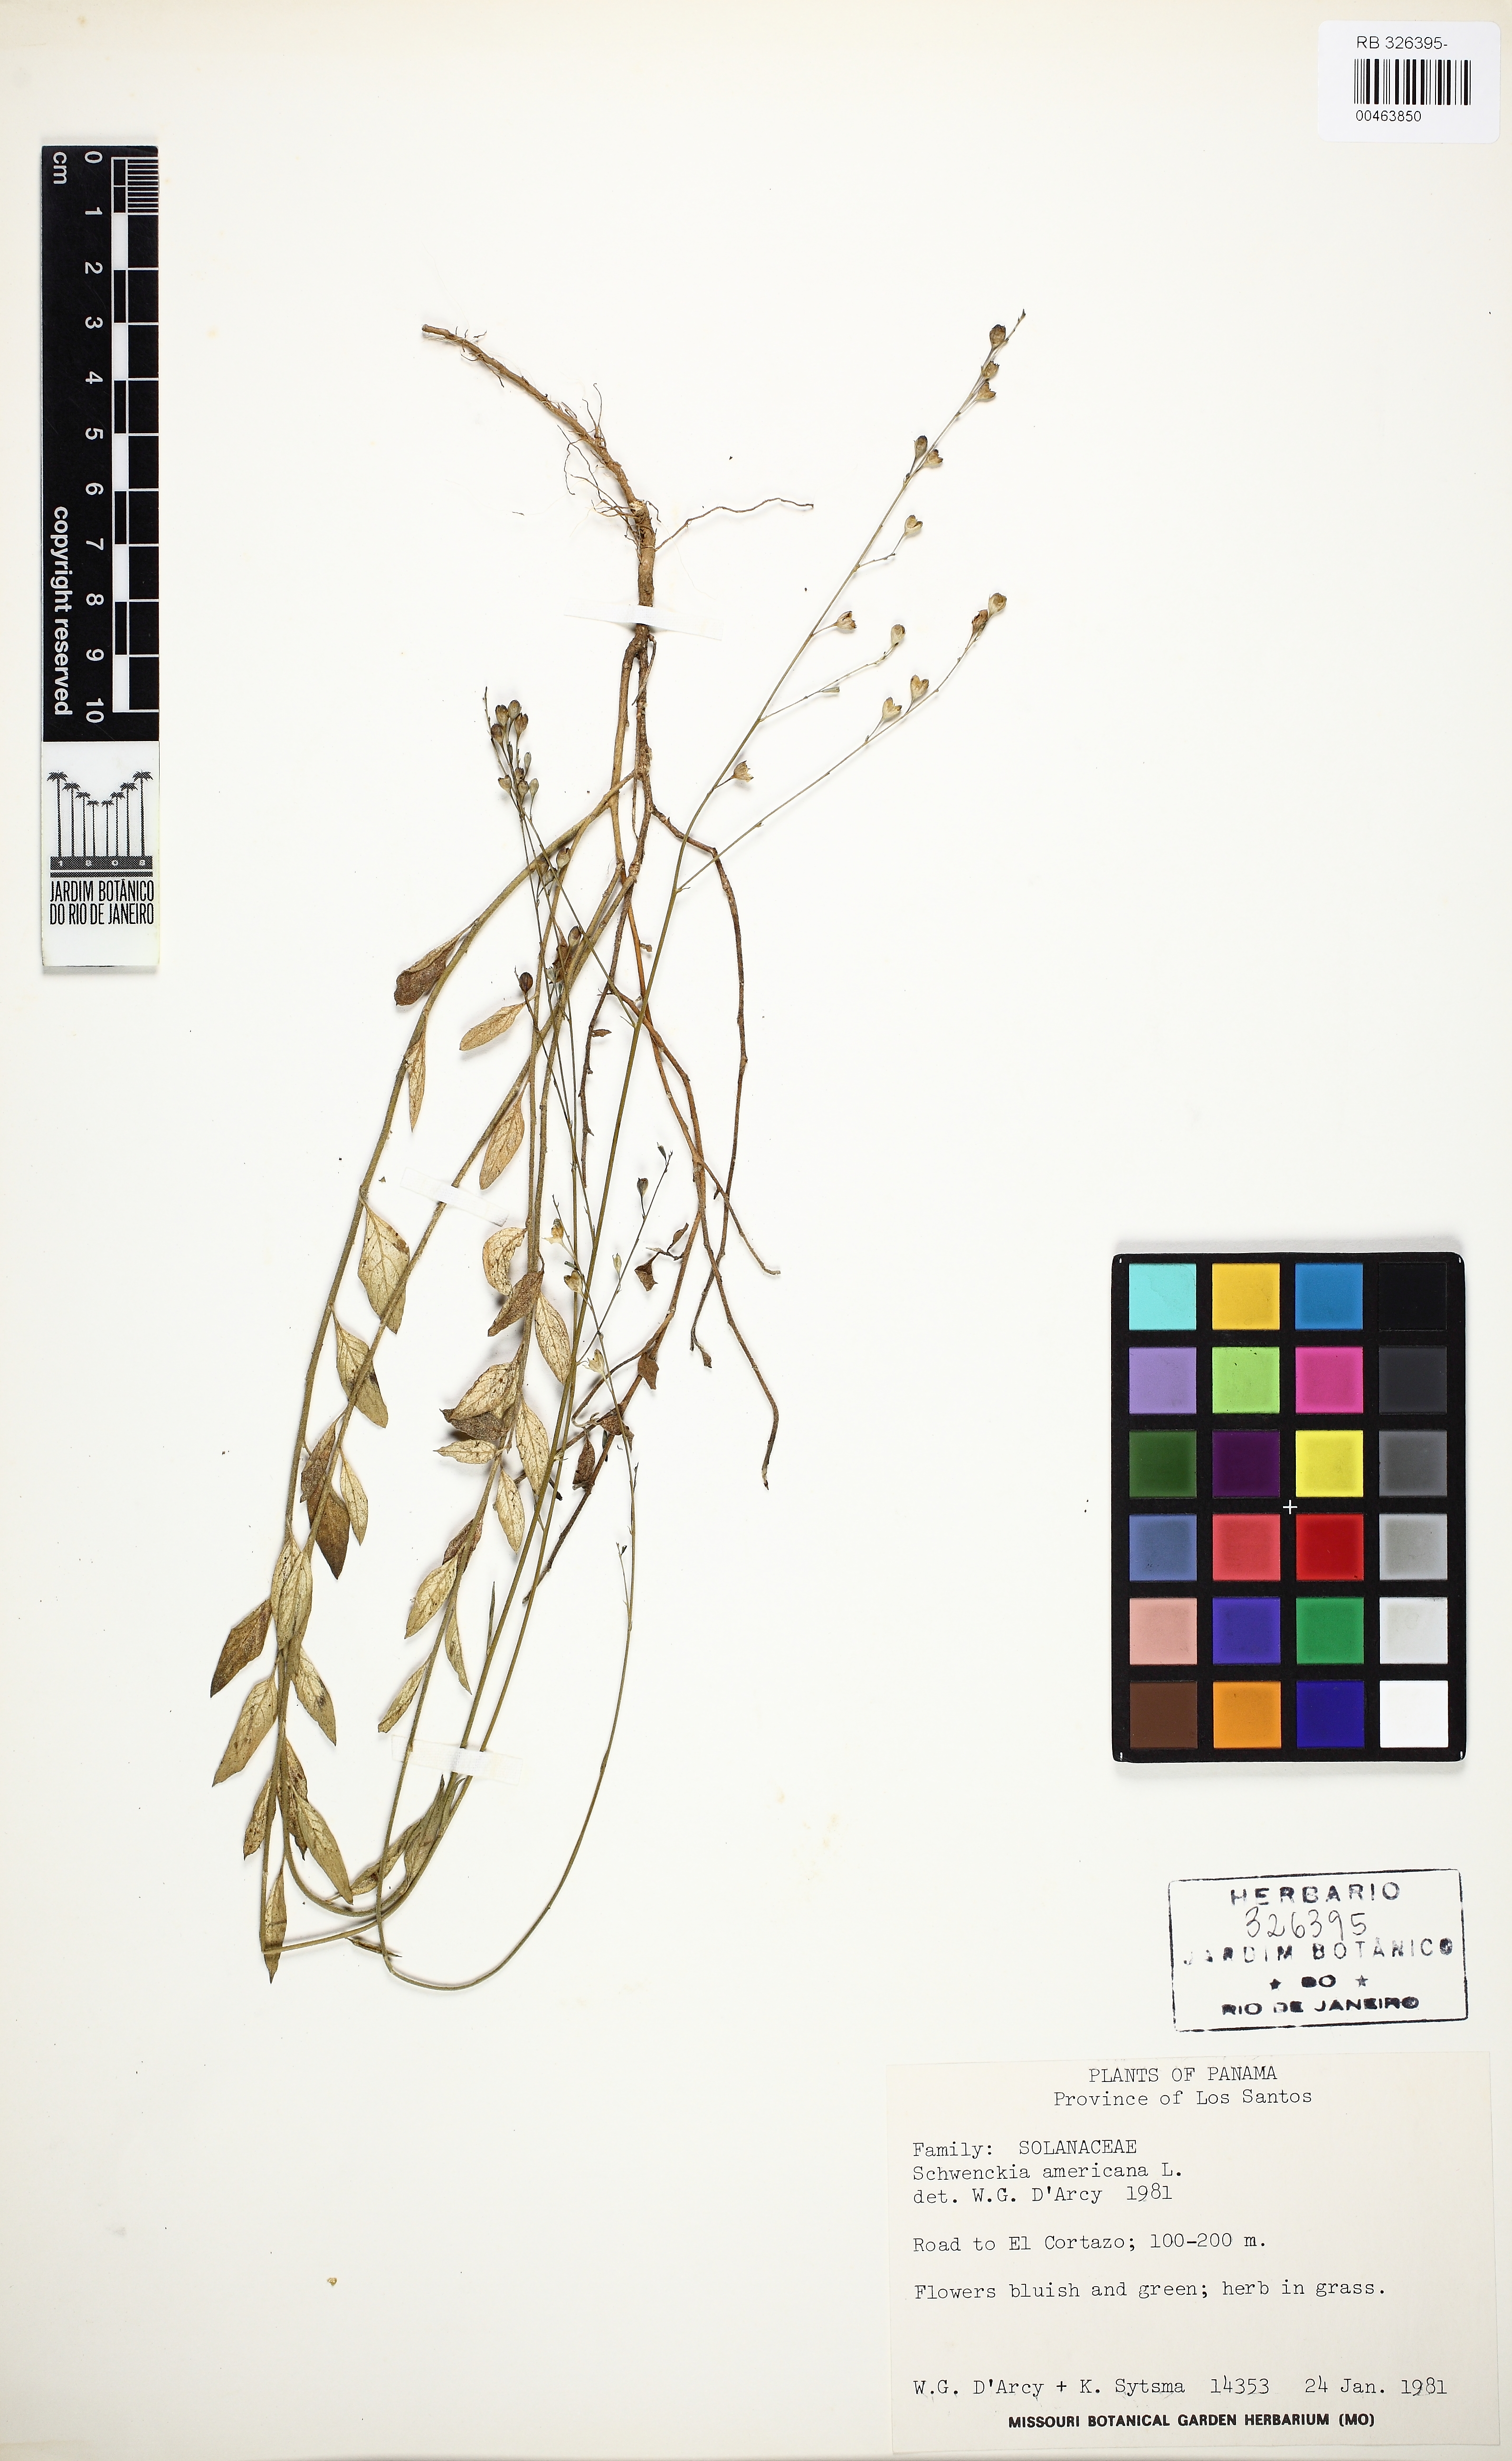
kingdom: Plantae
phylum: Tracheophyta
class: Magnoliopsida
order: Solanales
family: Solanaceae
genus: Schwenckia
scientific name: Schwenckia americana
